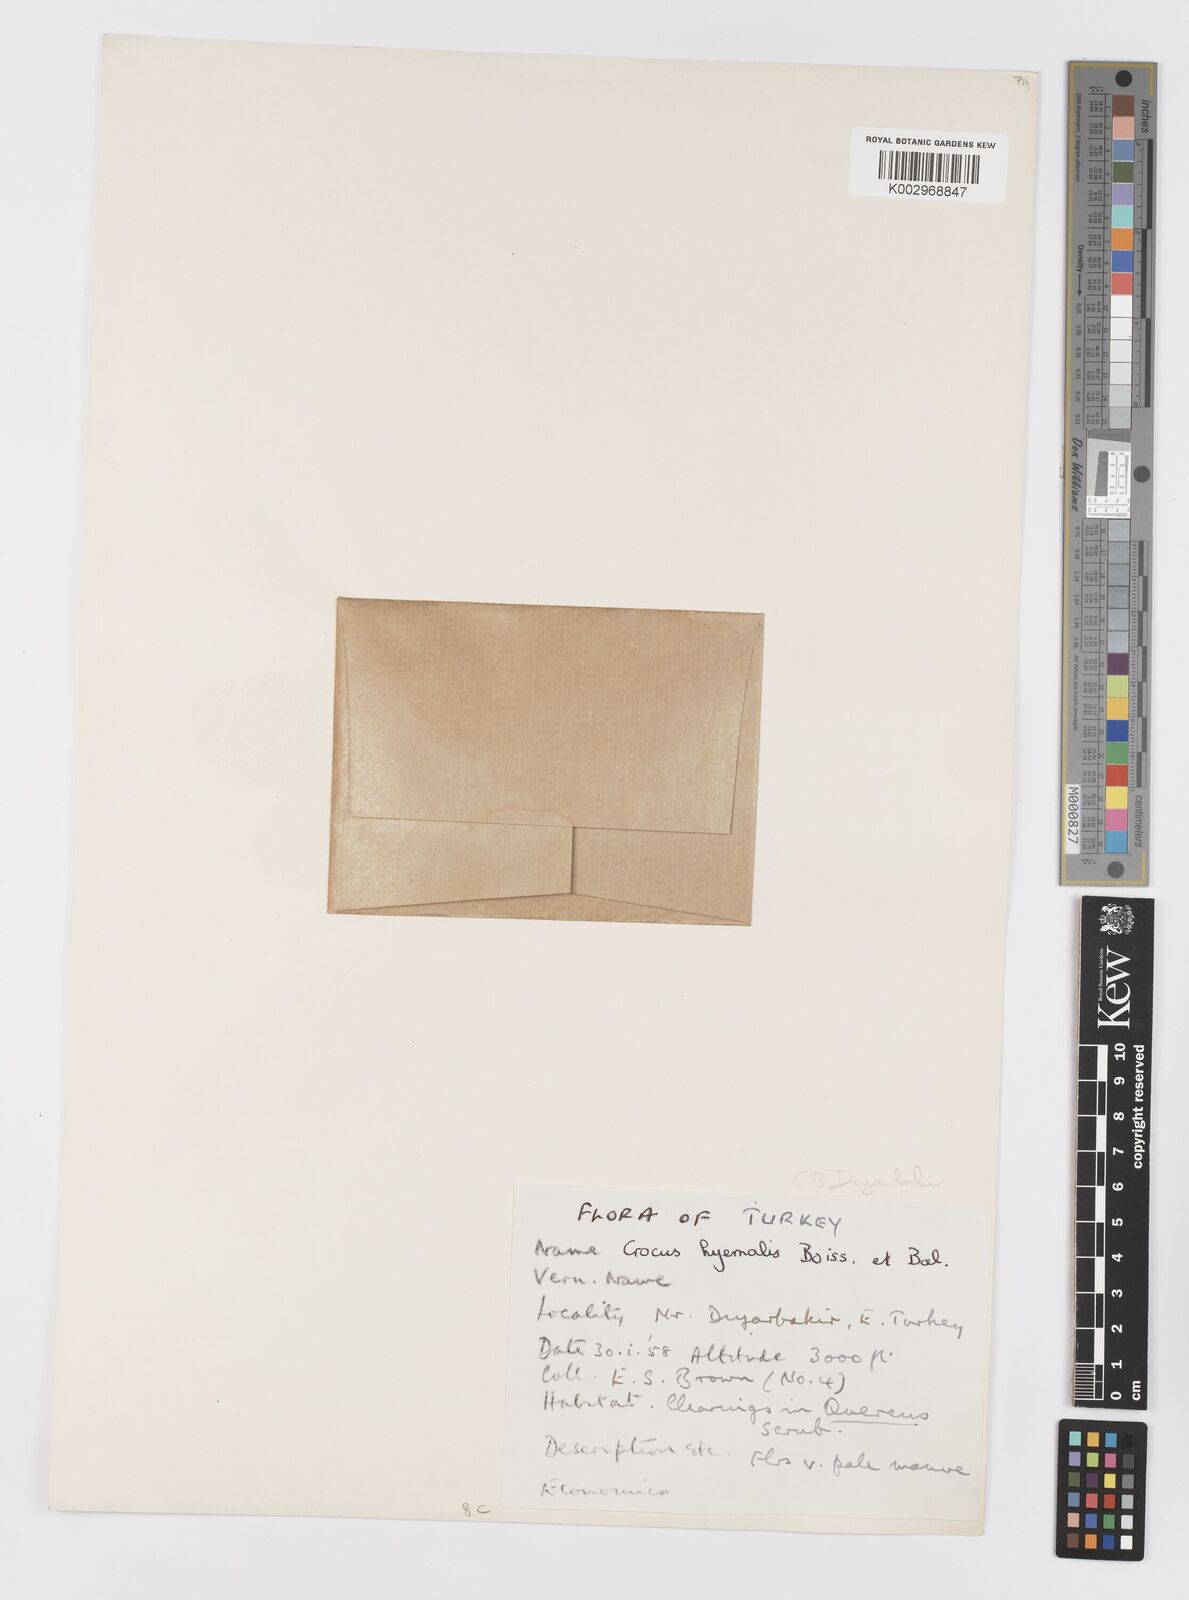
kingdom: Plantae
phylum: Tracheophyta
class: Liliopsida
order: Asparagales
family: Iridaceae
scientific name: Iridaceae
